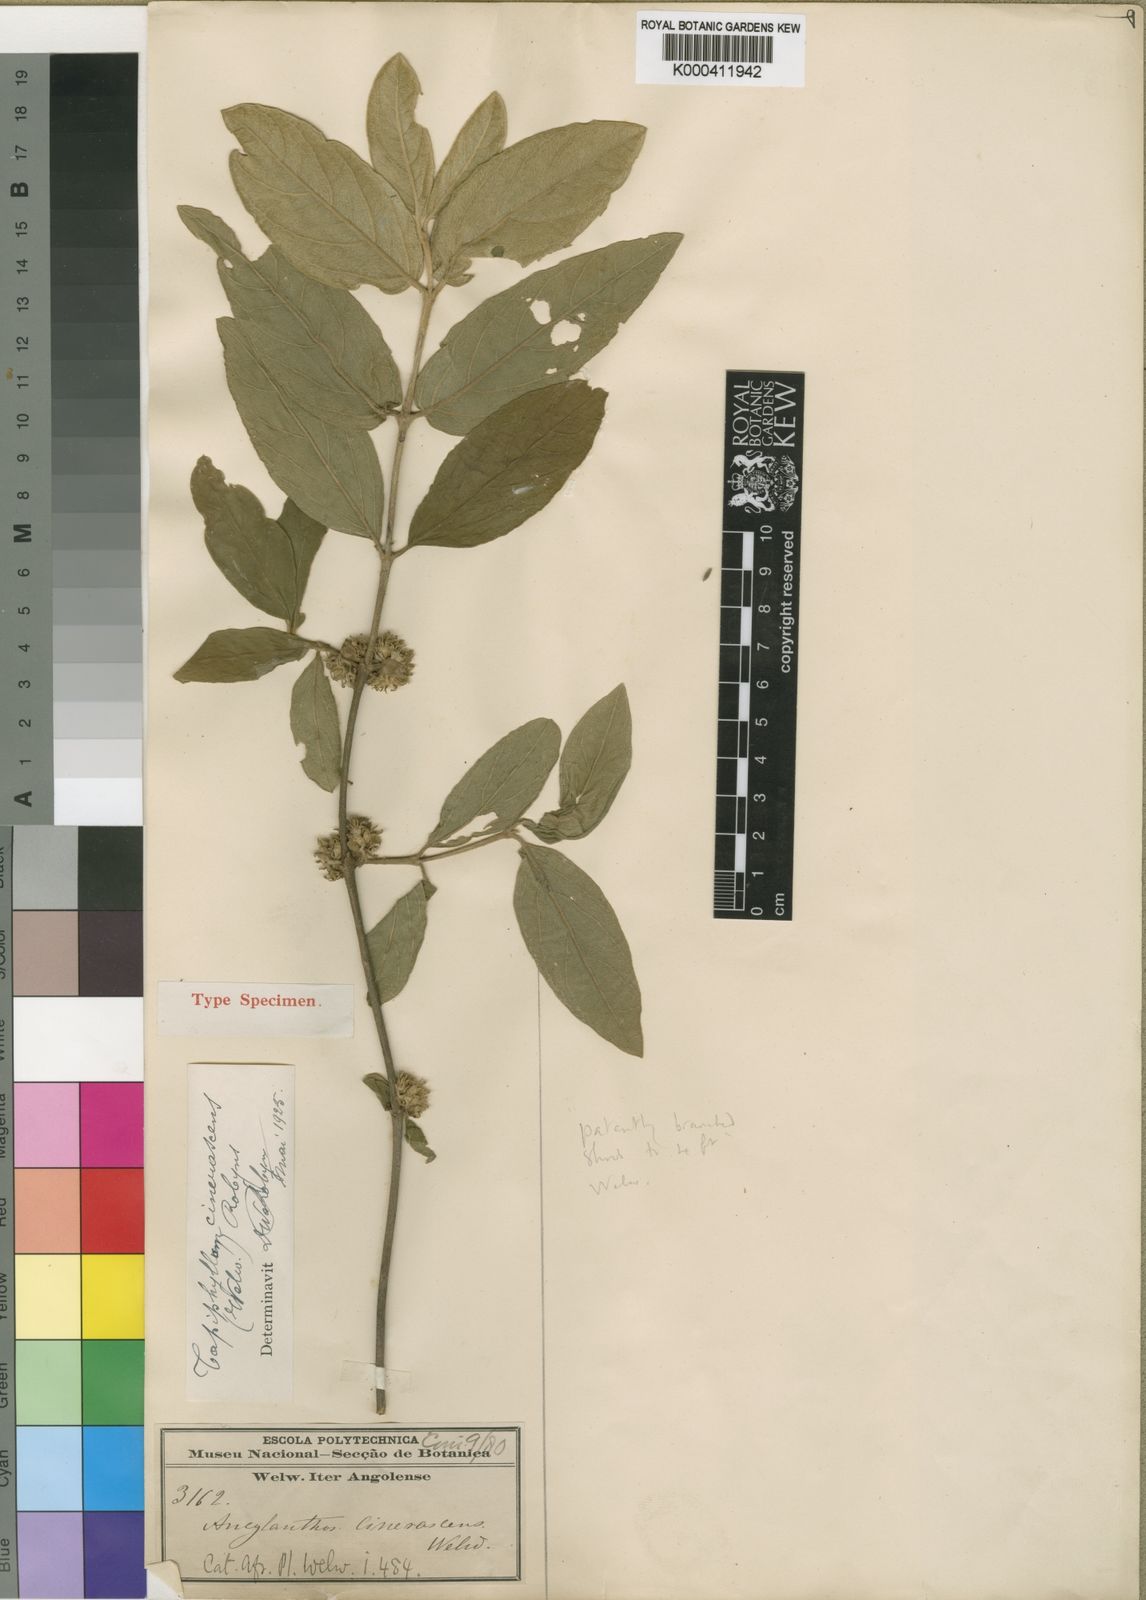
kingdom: Plantae
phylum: Tracheophyta
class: Magnoliopsida
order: Gentianales
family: Rubiaceae
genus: Vangueria
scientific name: Vangueria cinerascens
